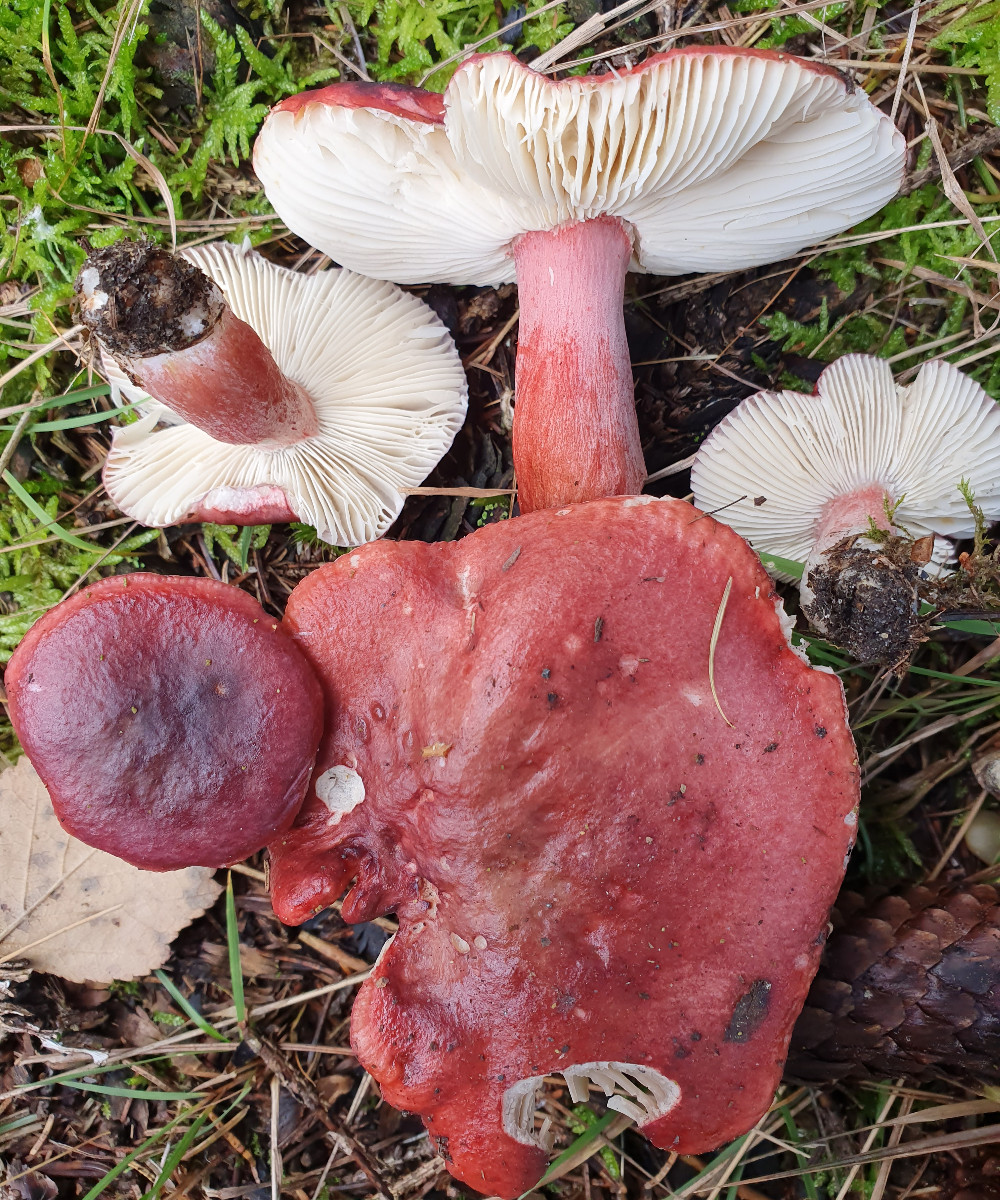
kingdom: Fungi
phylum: Basidiomycota
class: Agaricomycetes
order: Russulales
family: Russulaceae
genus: Russula
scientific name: Russula queletii
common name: Quélets skørhat
